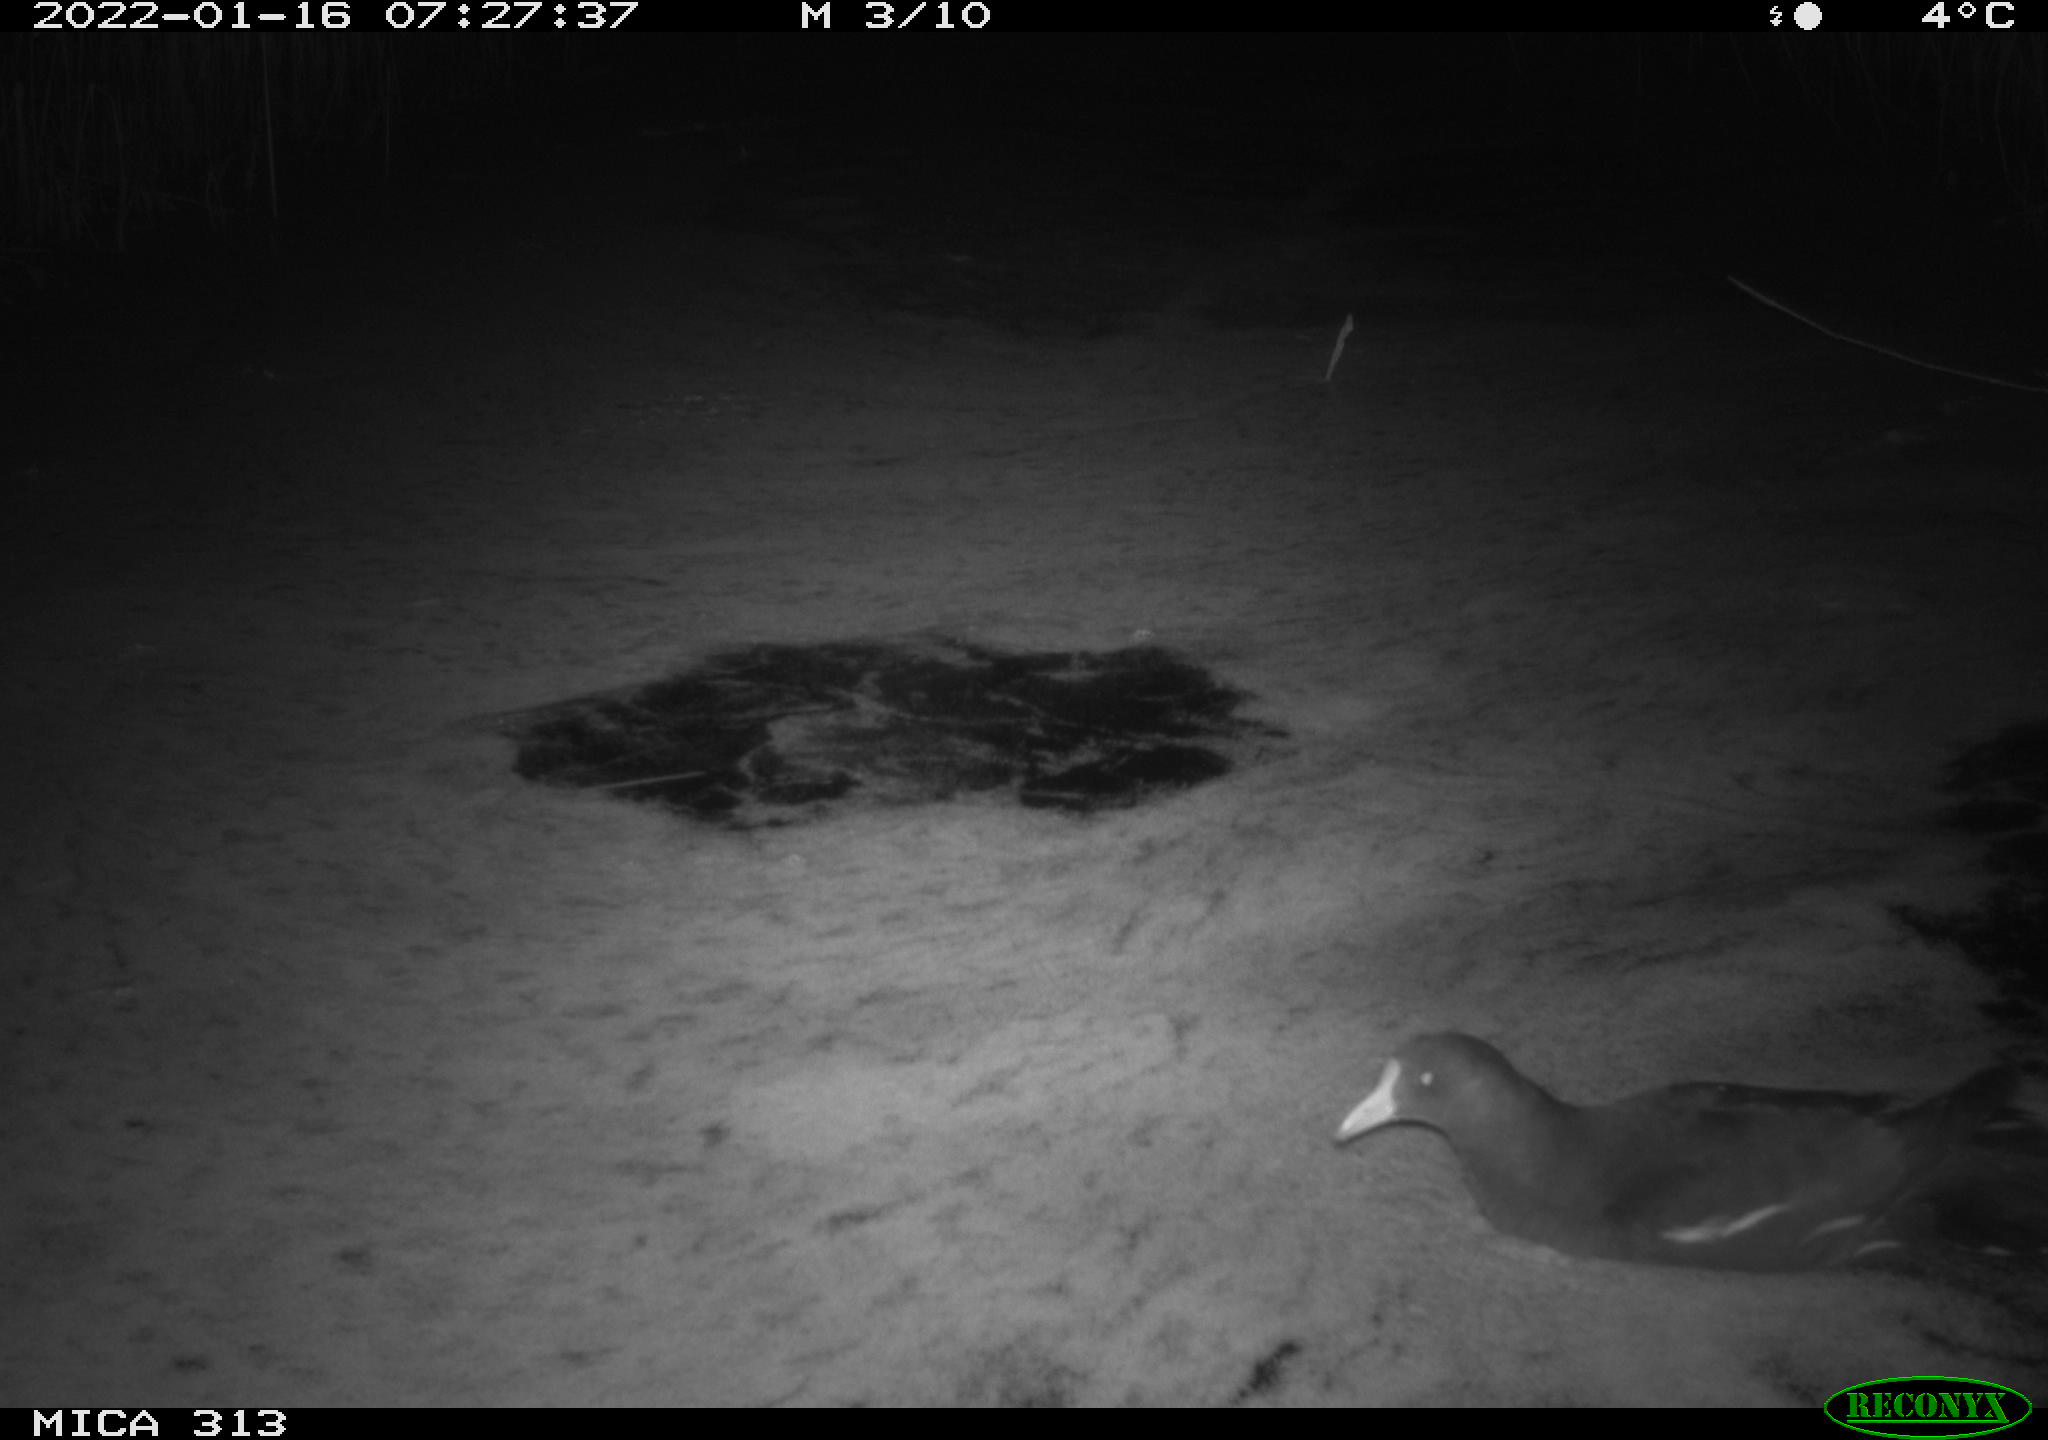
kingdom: Animalia
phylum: Chordata
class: Aves
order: Gruiformes
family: Rallidae
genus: Fulica
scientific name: Fulica atra
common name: Eurasian coot
